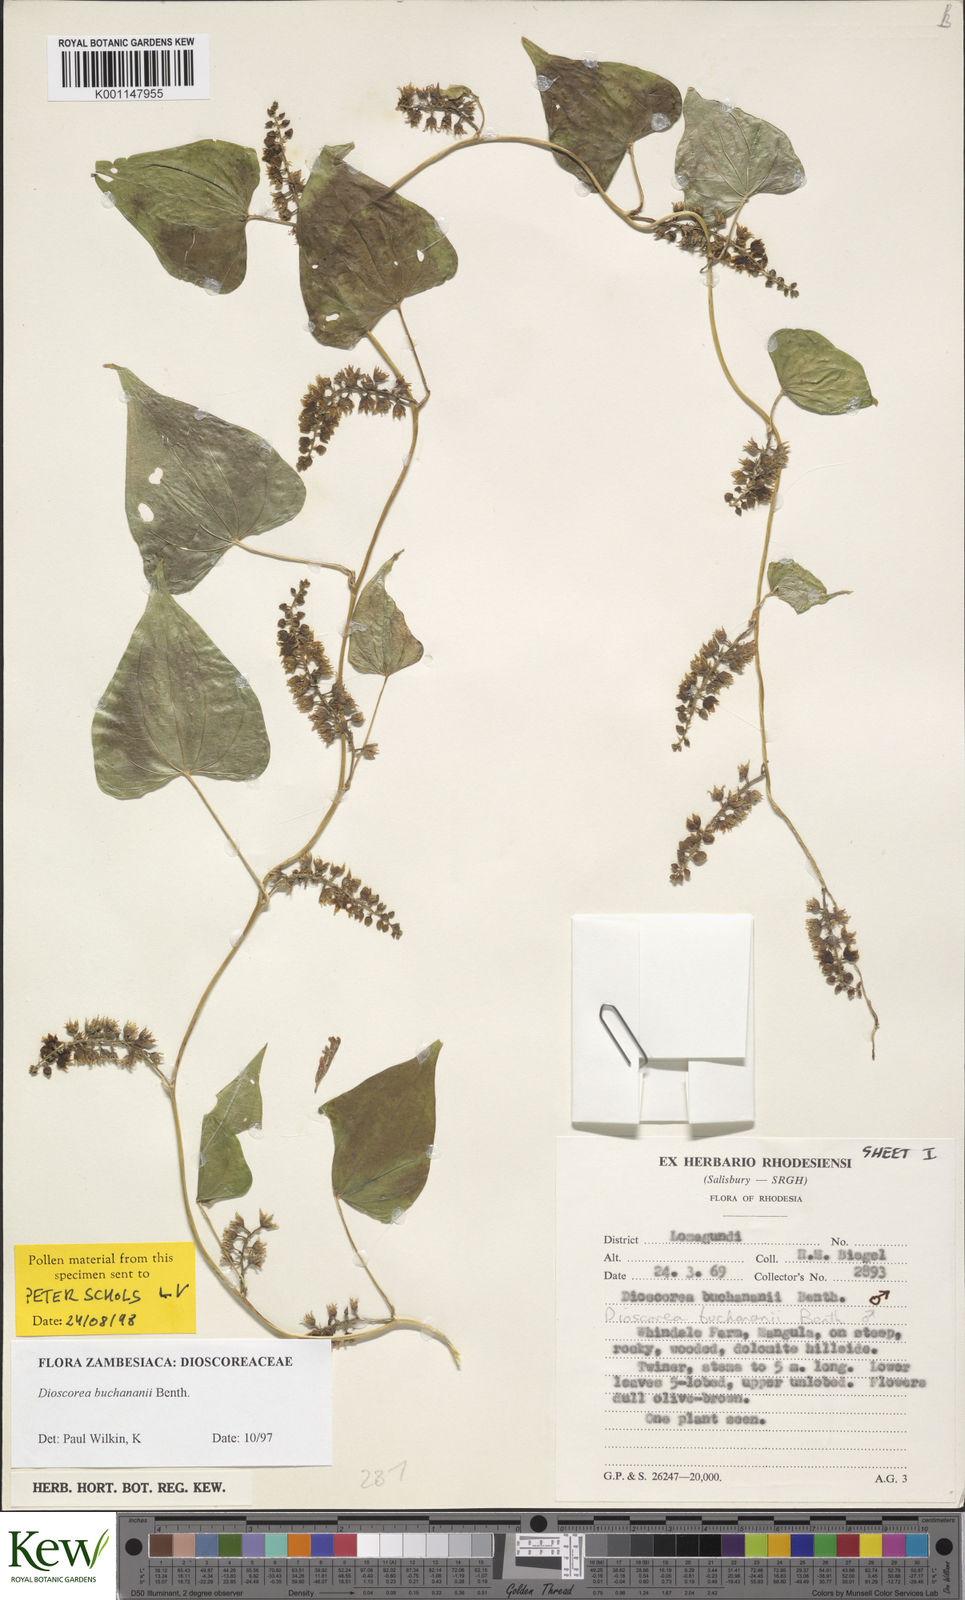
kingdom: Plantae
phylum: Tracheophyta
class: Liliopsida
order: Dioscoreales
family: Dioscoreaceae
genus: Dioscorea
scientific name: Dioscorea buchananii
